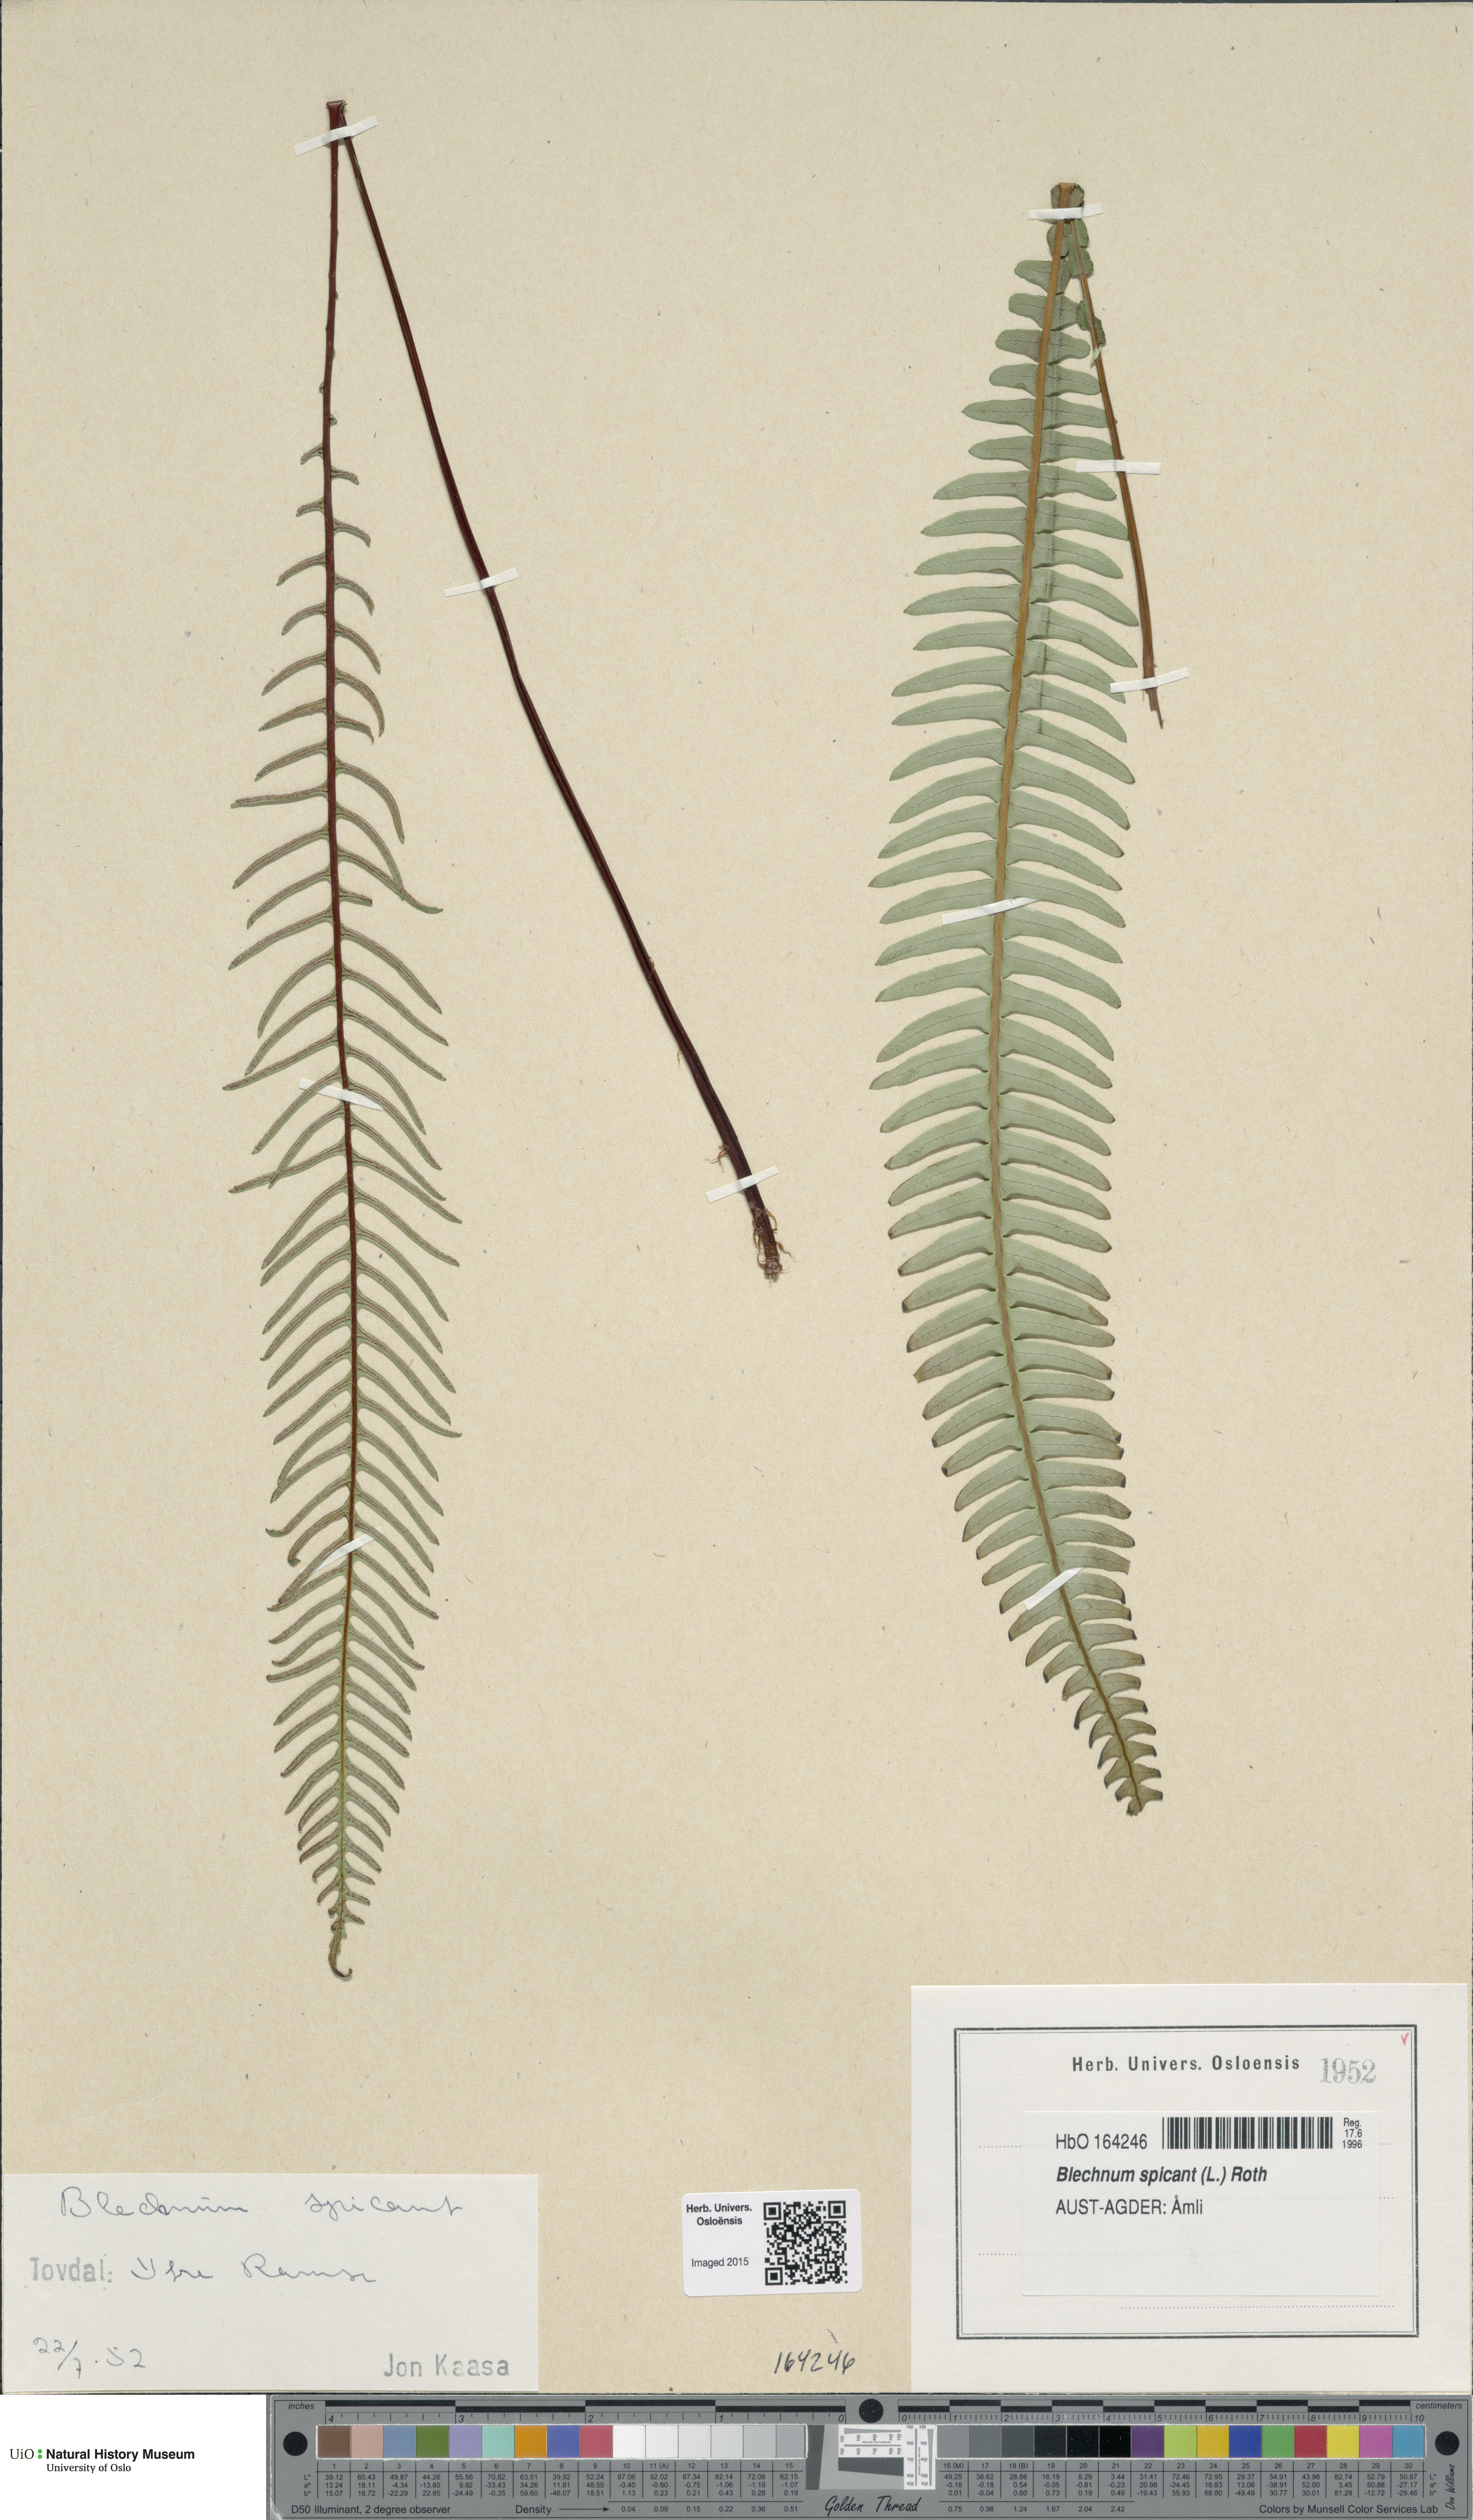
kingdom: Plantae
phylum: Tracheophyta
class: Polypodiopsida
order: Polypodiales
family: Blechnaceae
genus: Struthiopteris
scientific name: Struthiopteris spicant
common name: Deer fern
